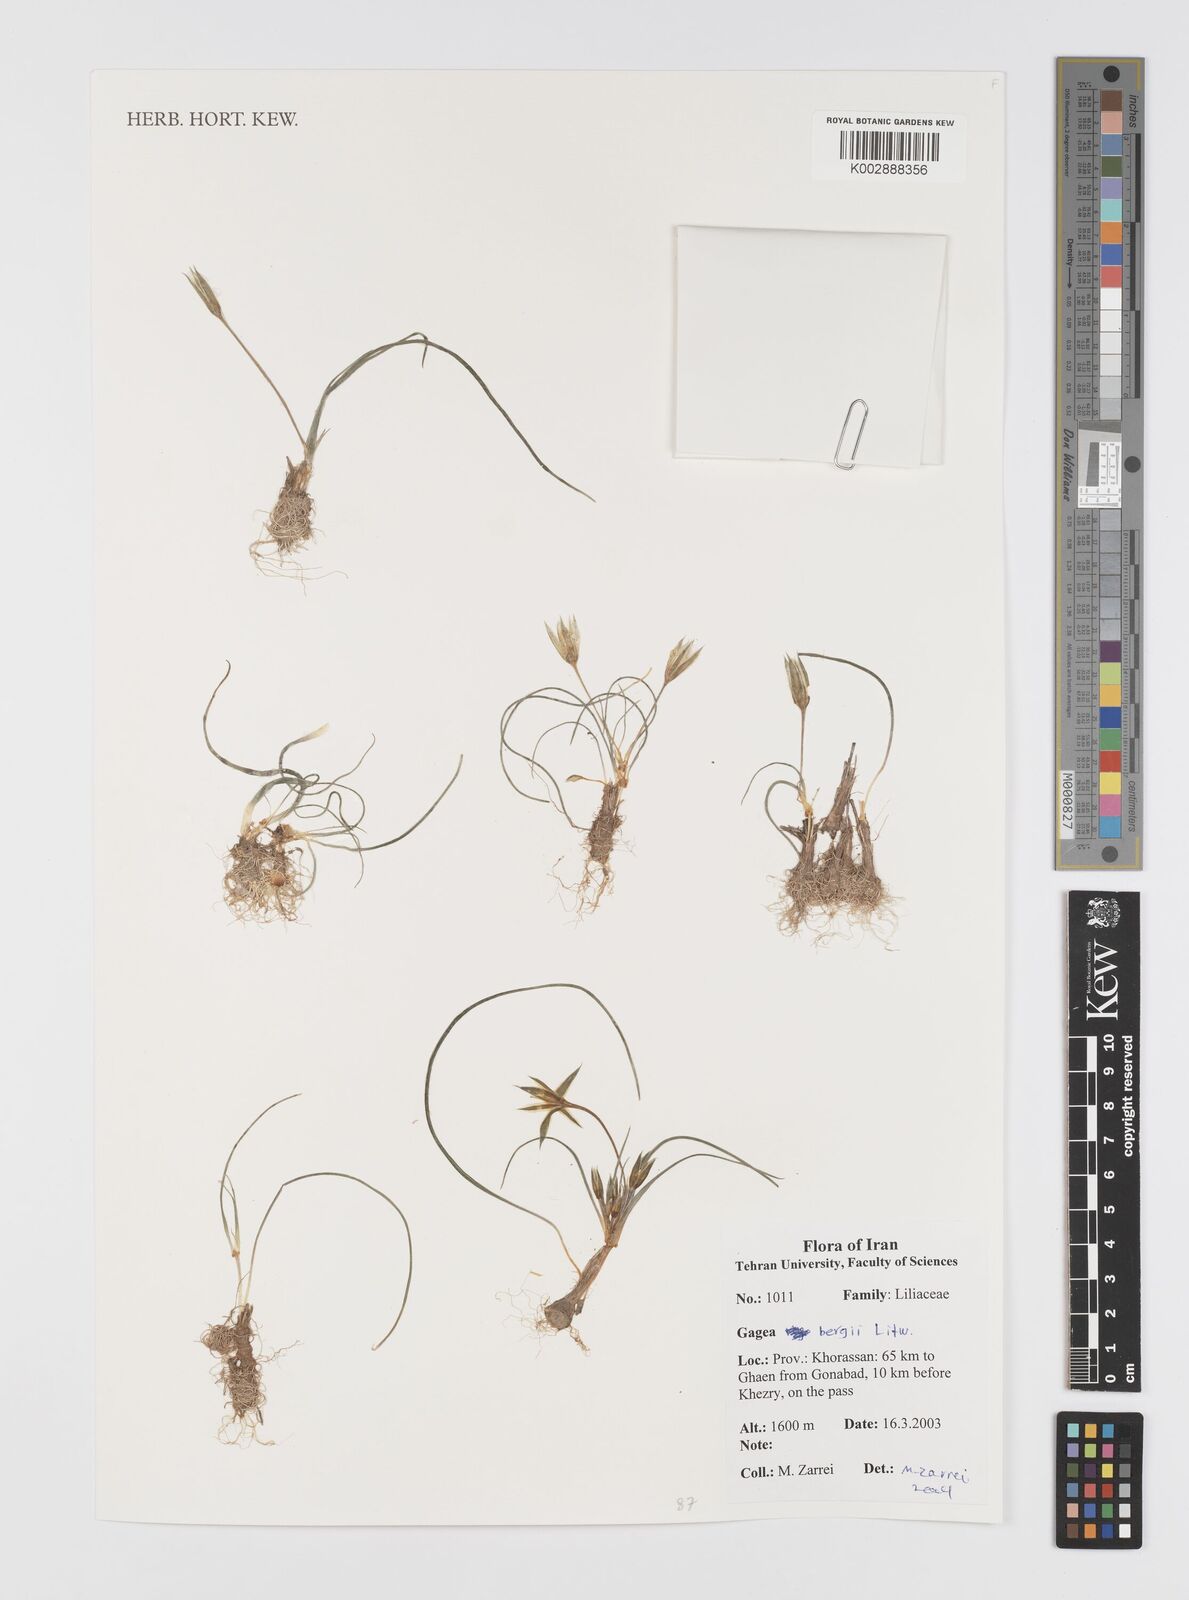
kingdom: Plantae
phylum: Tracheophyta
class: Liliopsida
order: Liliales
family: Liliaceae
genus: Gagea
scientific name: Gagea bergii
